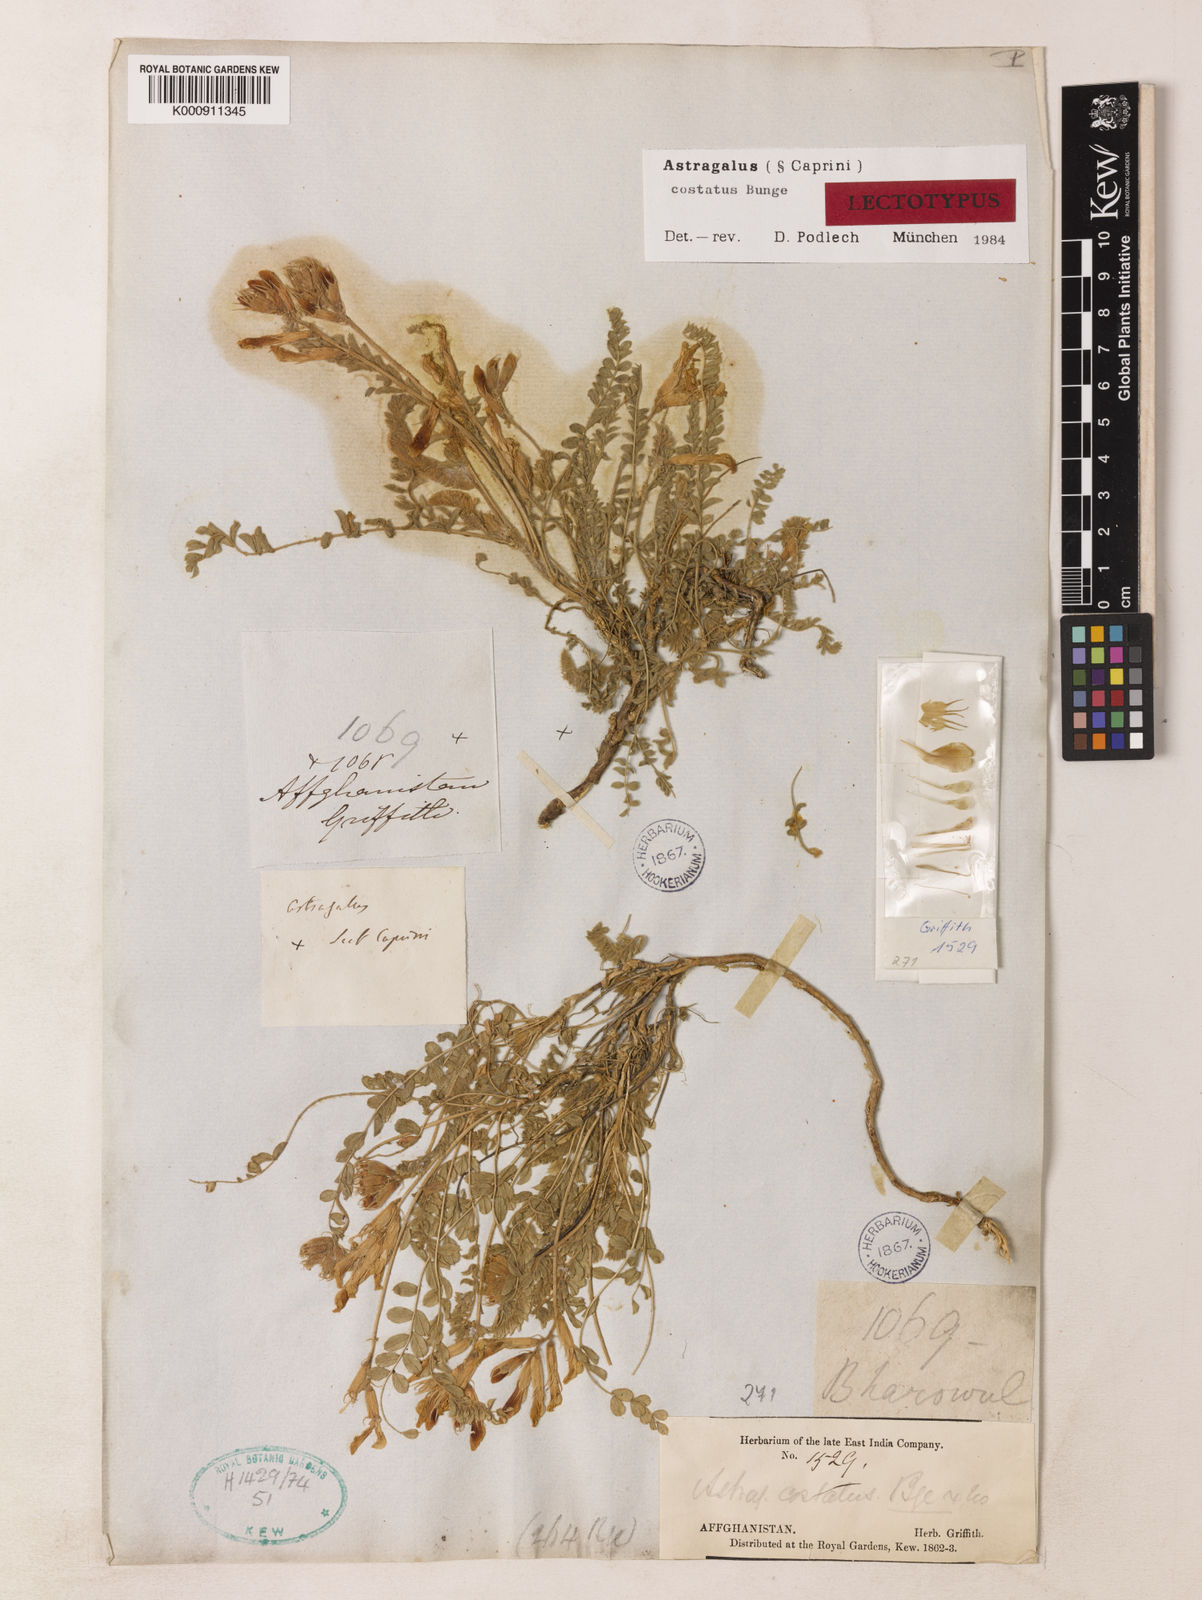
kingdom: Plantae
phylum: Tracheophyta
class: Magnoliopsida
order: Fabales
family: Fabaceae
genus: Astragalus
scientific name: Astragalus costatus
